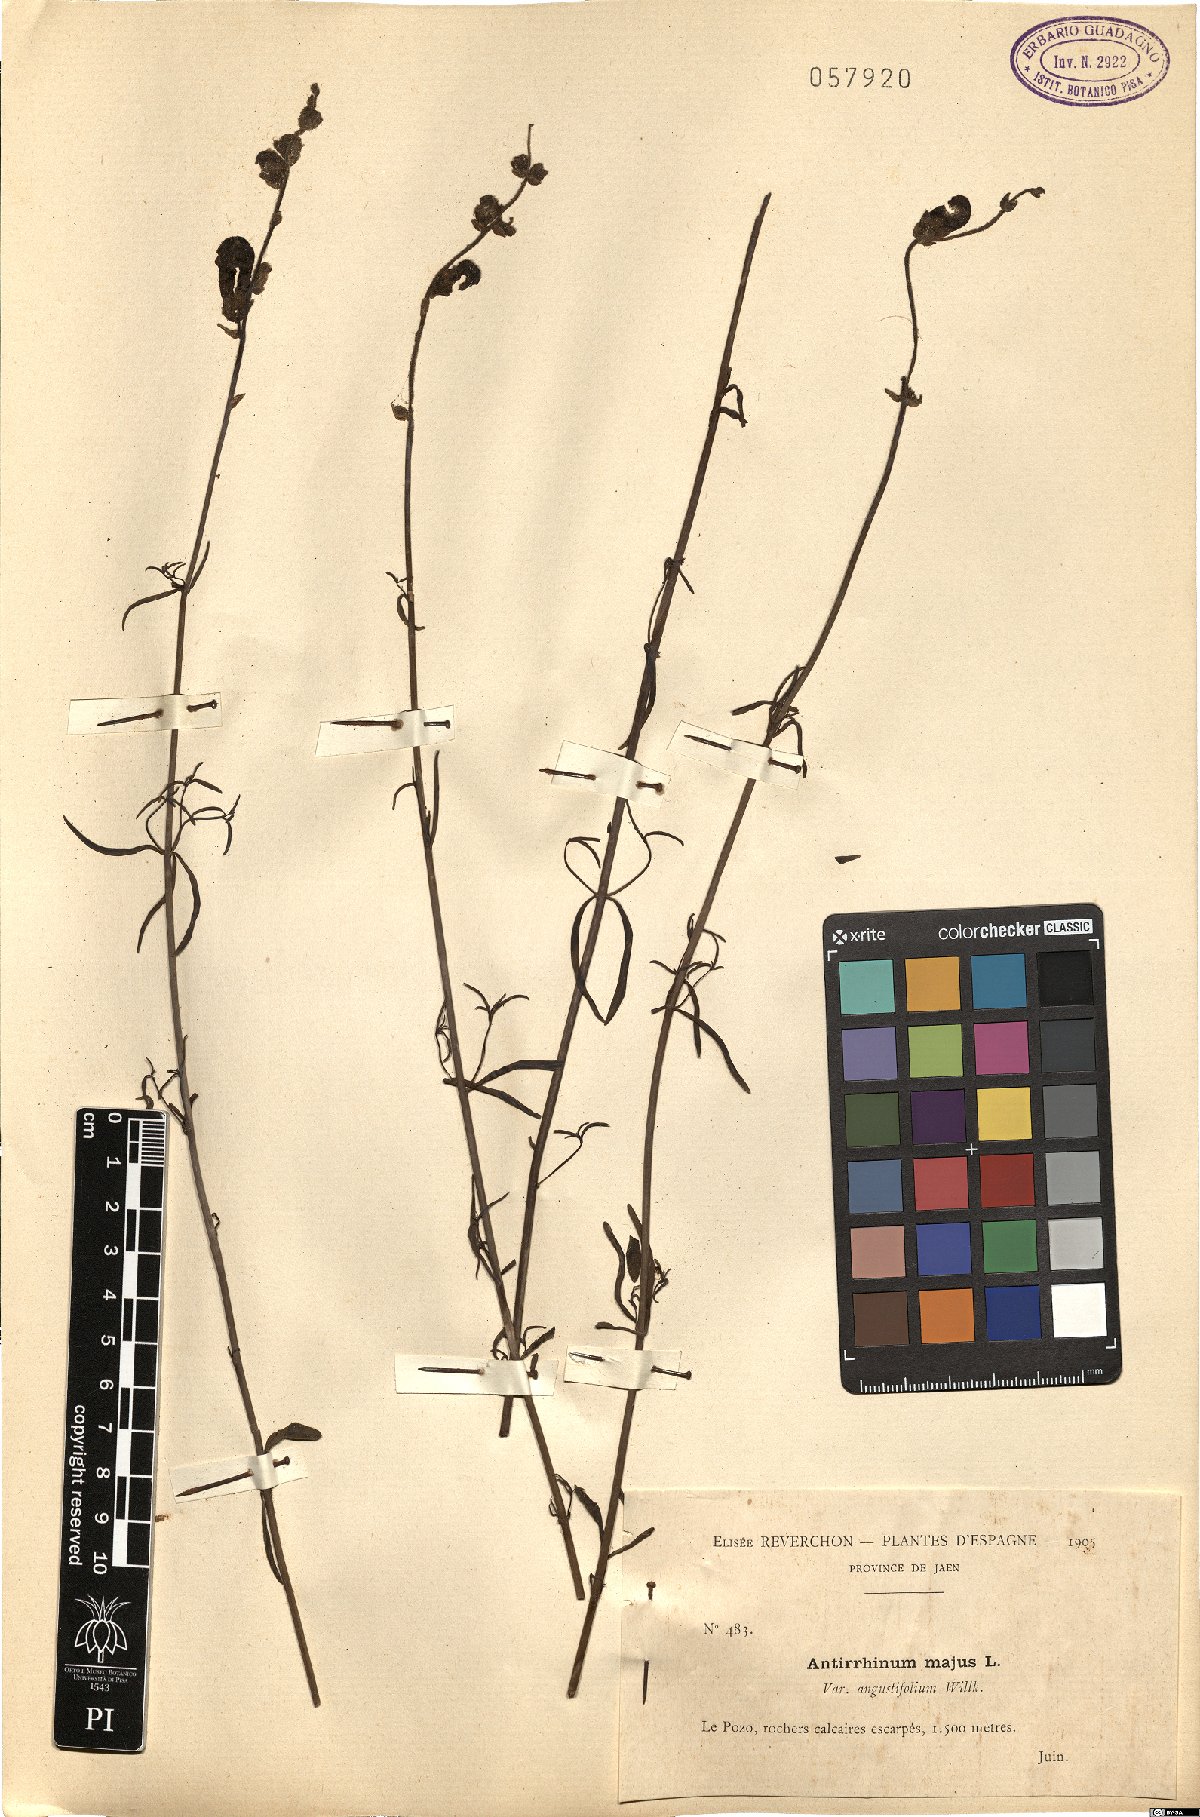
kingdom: Plantae
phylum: Tracheophyta
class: Magnoliopsida
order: Lamiales
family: Plantaginaceae
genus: Antirrhinum
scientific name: Antirrhinum tortuosum
